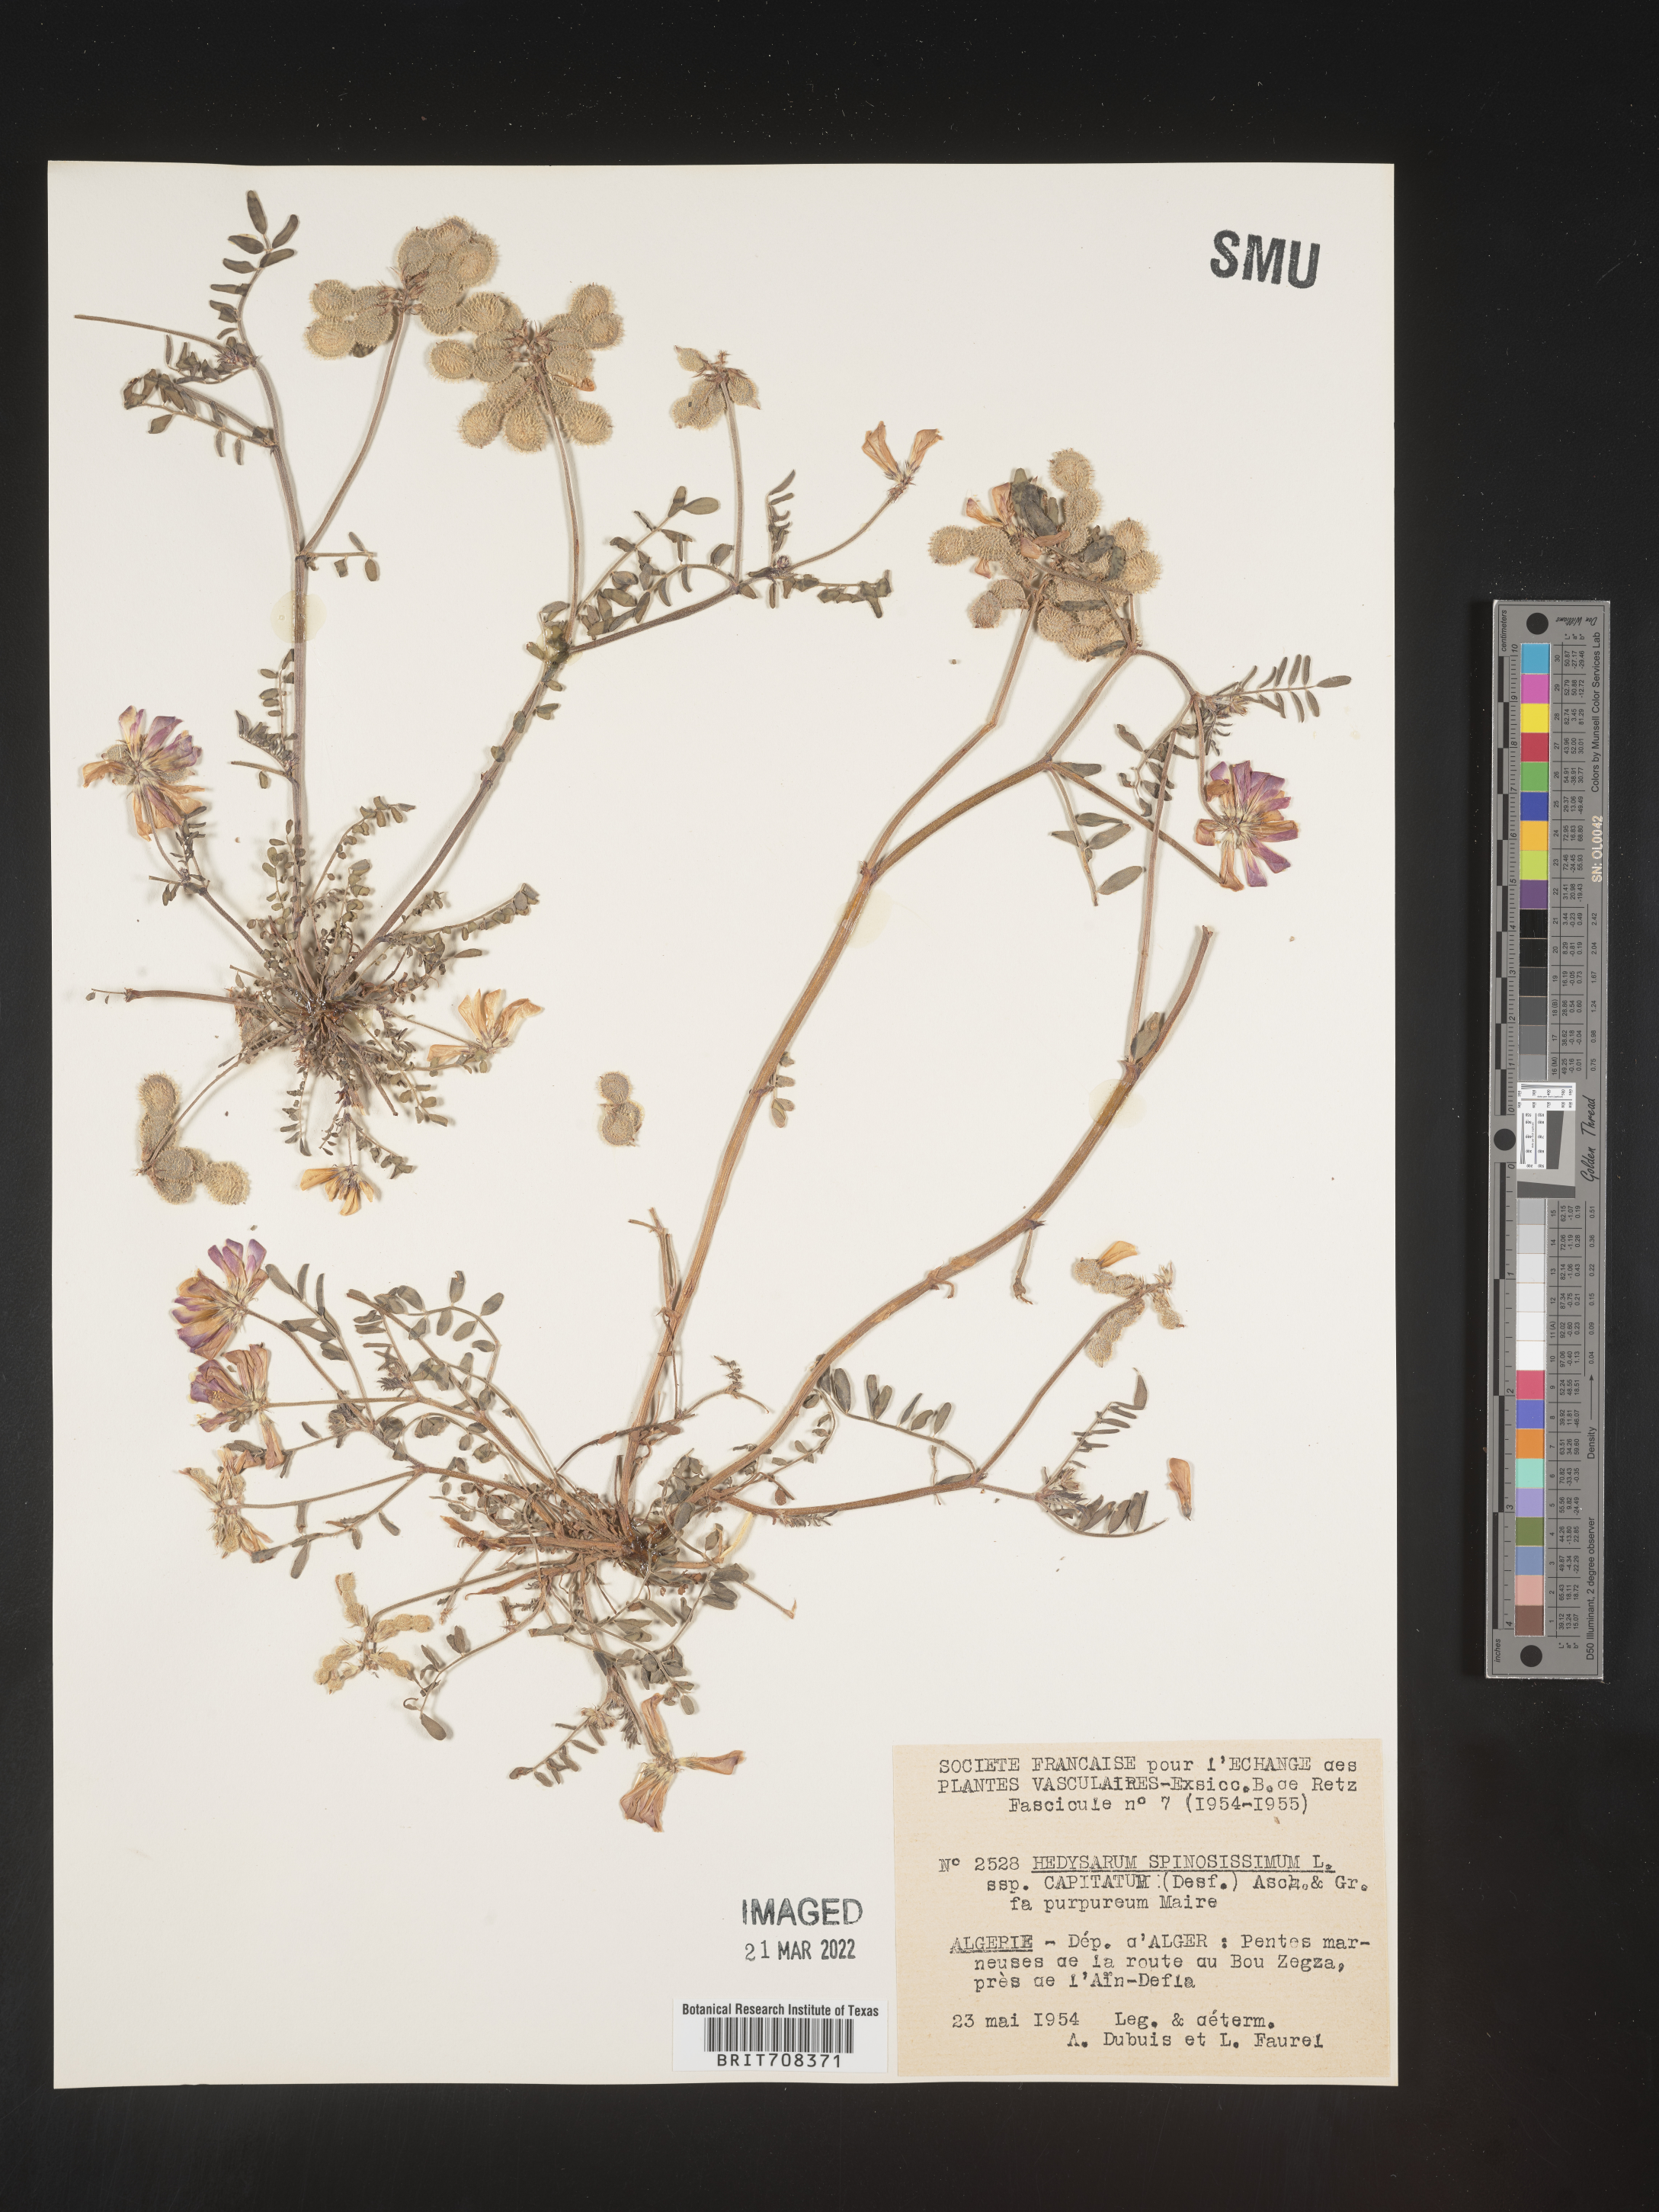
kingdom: Plantae
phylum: Tracheophyta
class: Magnoliopsida
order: Fabales
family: Fabaceae
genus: Hedysarum
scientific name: Hedysarum
